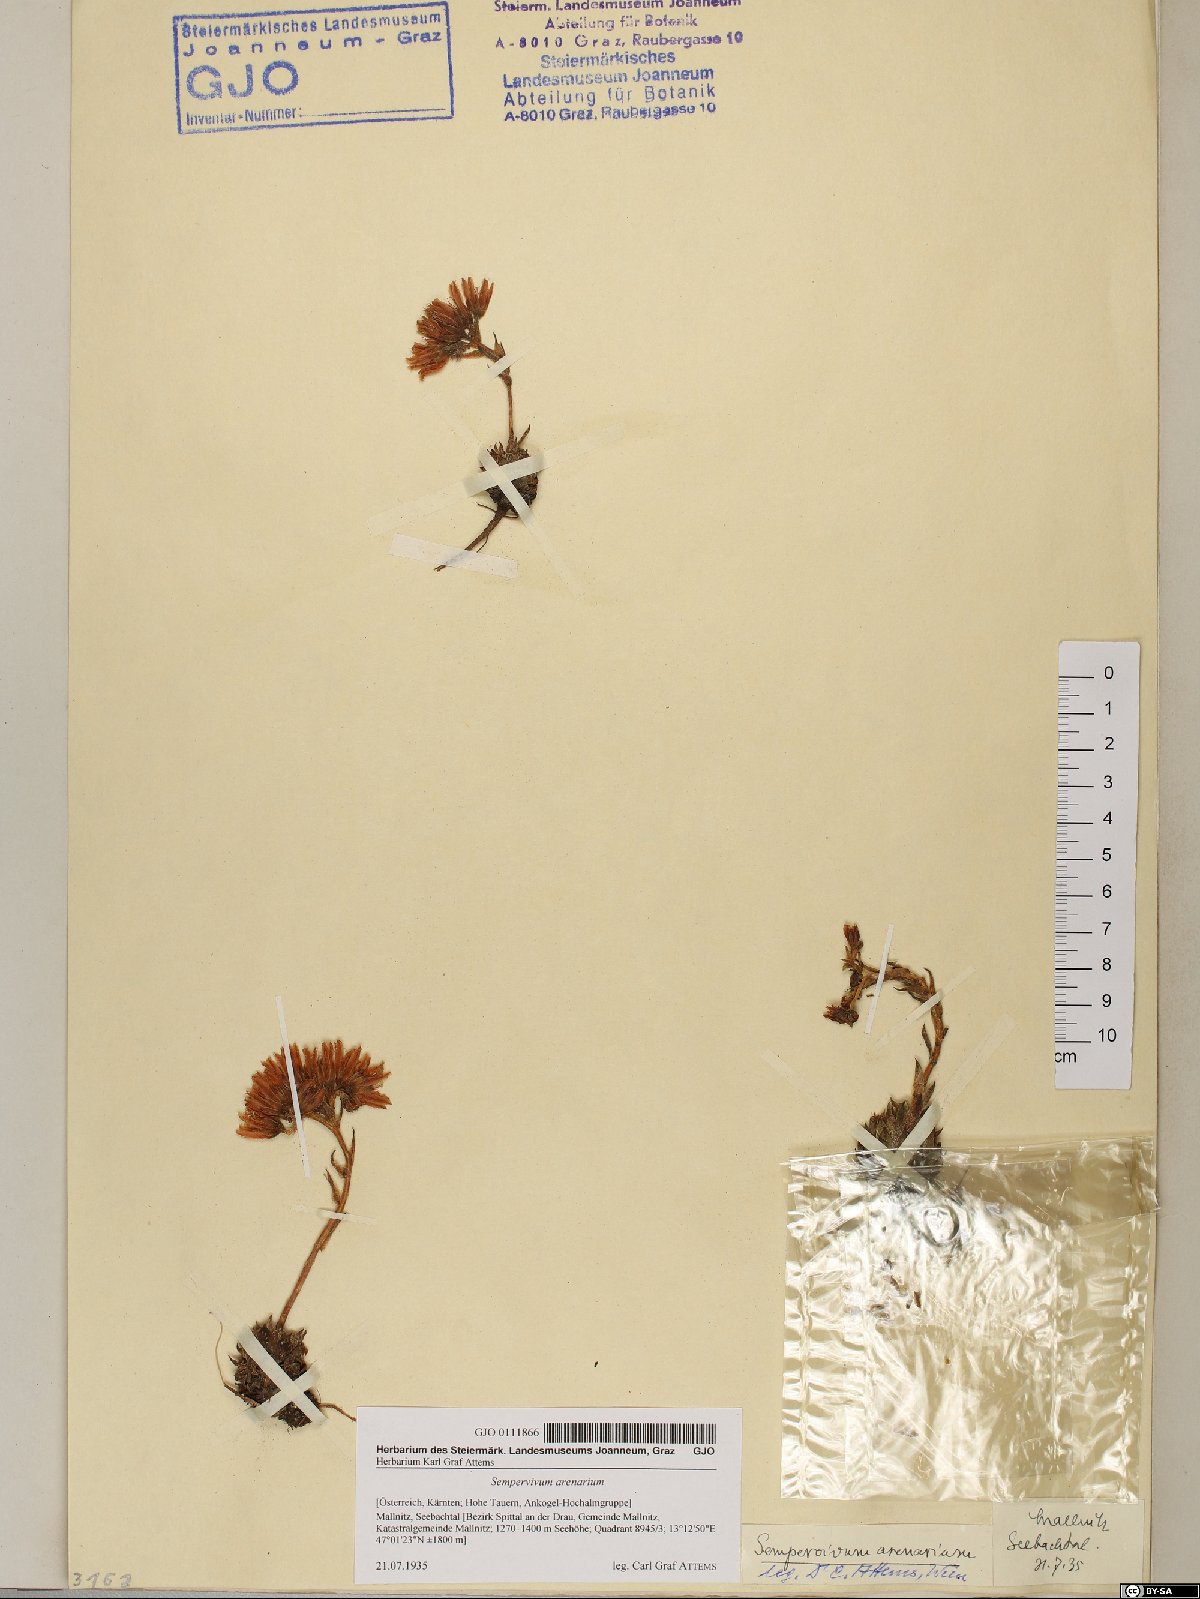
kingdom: Plantae
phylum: Tracheophyta
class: Magnoliopsida
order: Saxifragales
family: Crassulaceae
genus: Sempervivum
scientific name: Sempervivum globiferum
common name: Rolling hen-and-chicks
